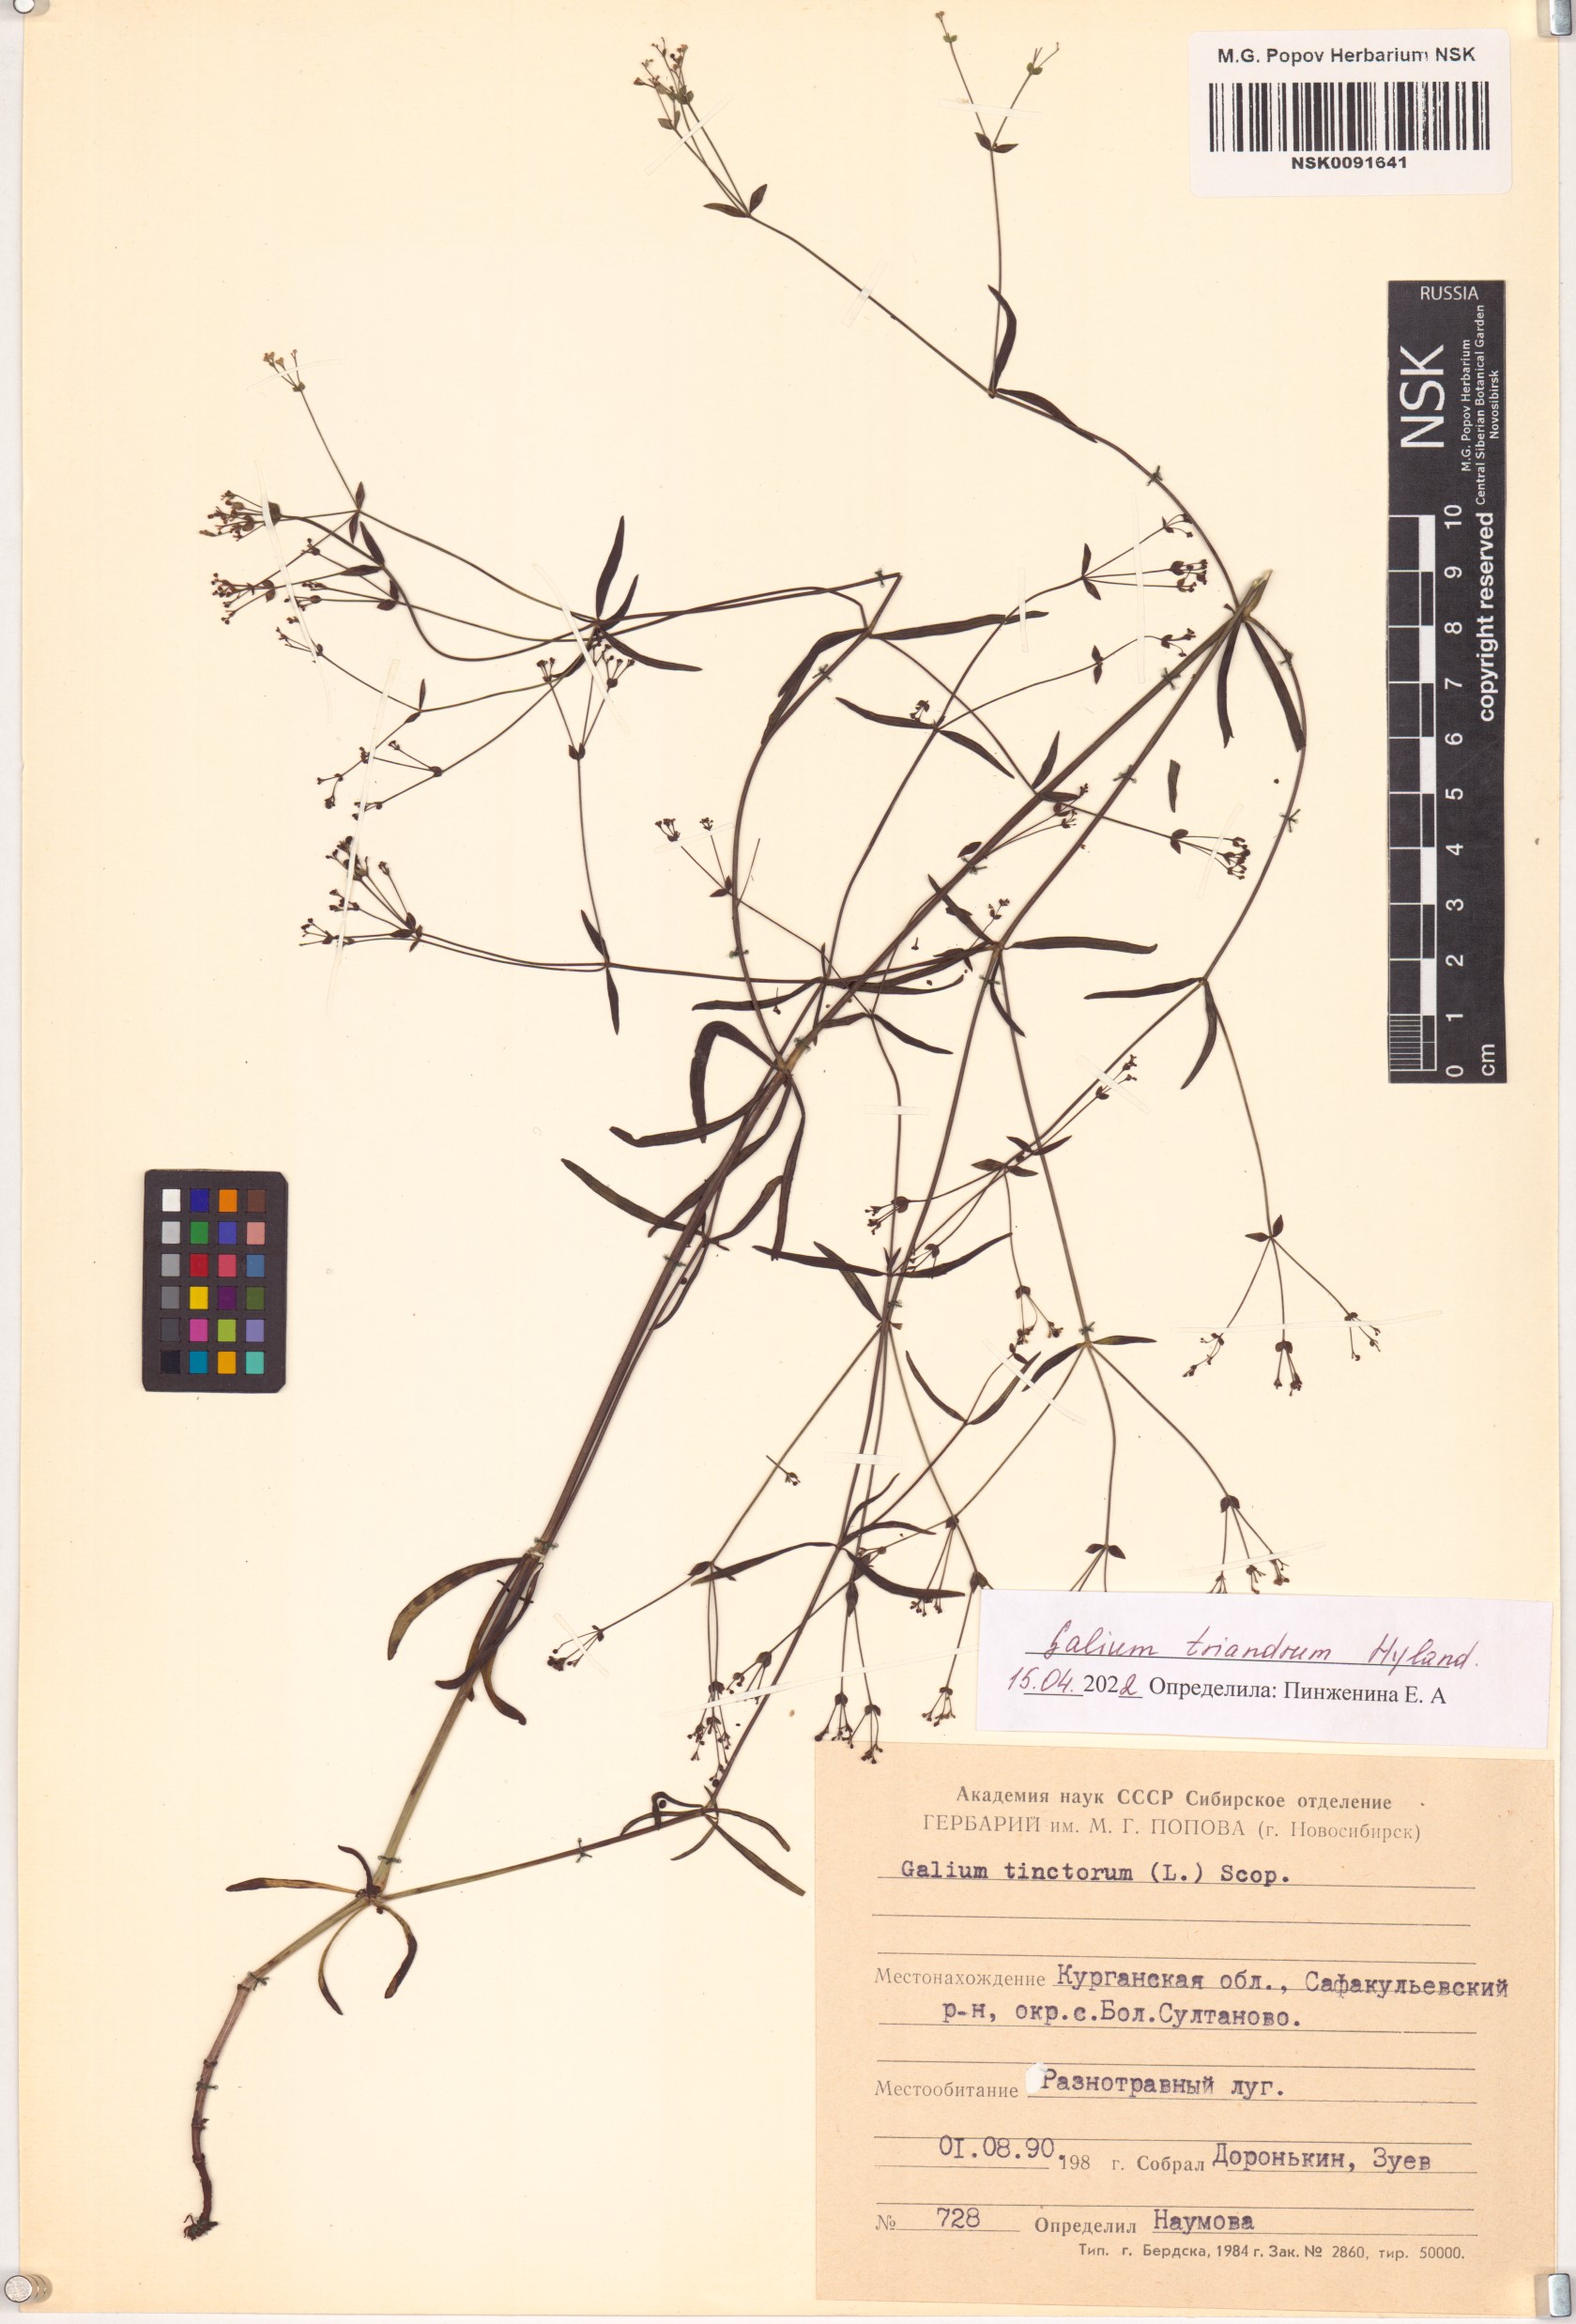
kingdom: Plantae
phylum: Tracheophyta
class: Magnoliopsida
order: Gentianales
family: Rubiaceae
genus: Asperula
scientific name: Asperula tinctoria
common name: Dyer's woodruff
